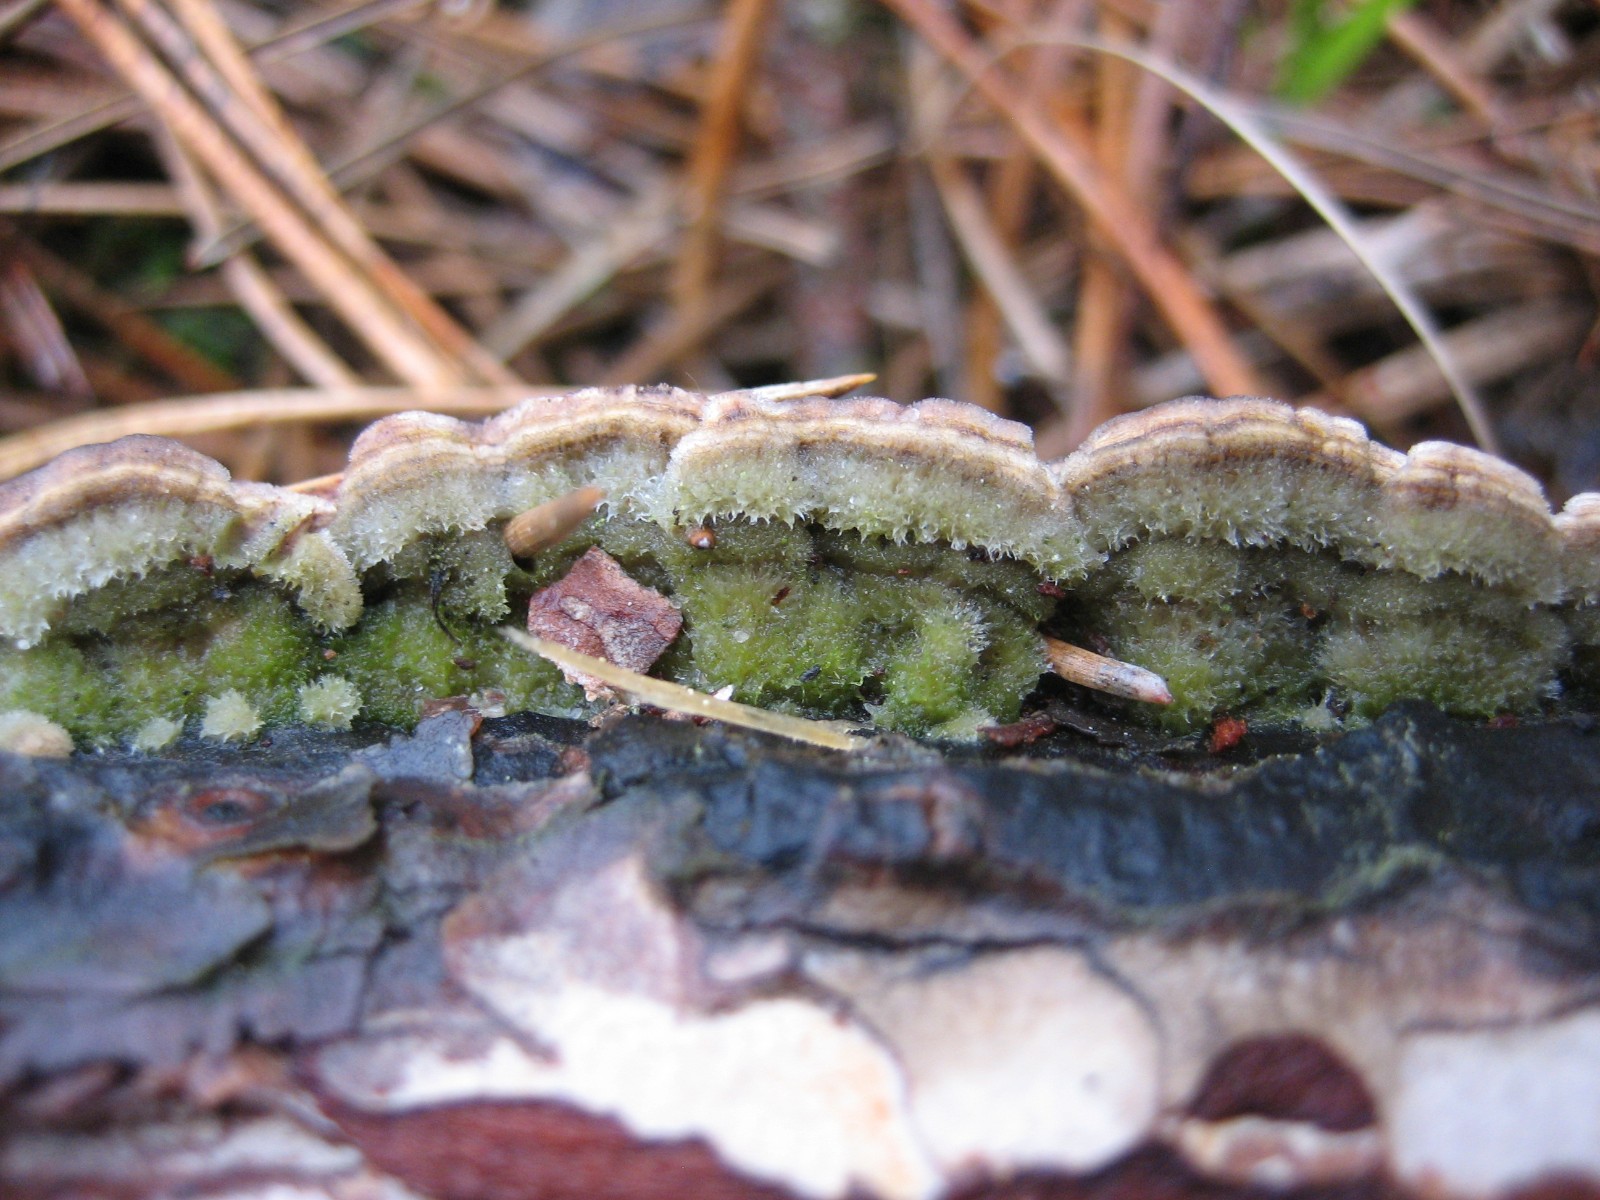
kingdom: Fungi
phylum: Basidiomycota
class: Agaricomycetes
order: Hymenochaetales
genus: Trichaptum
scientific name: Trichaptum abietinum
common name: almindelig violporesvamp
